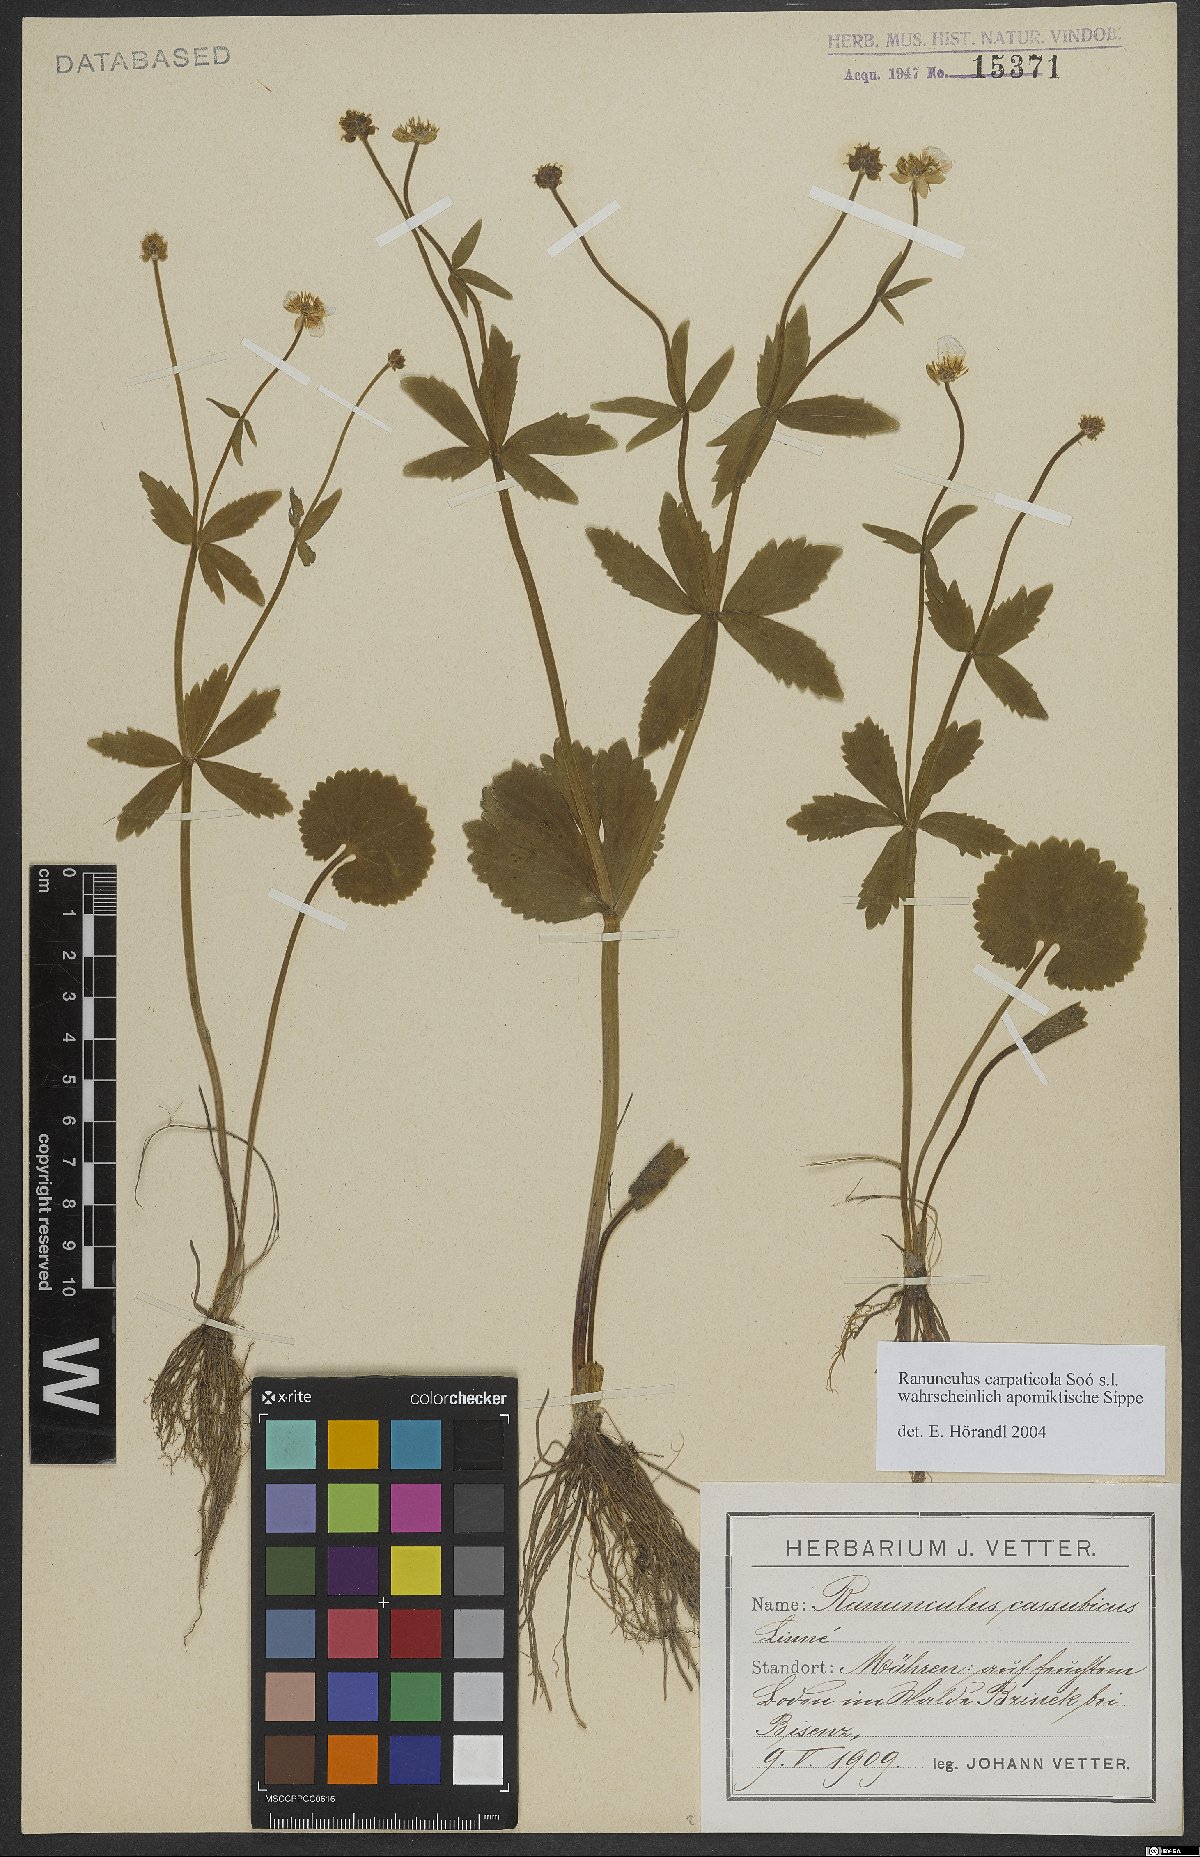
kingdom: Plantae
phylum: Tracheophyta
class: Magnoliopsida
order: Ranunculales
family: Ranunculaceae
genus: Ranunculus
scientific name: Ranunculus cassubicifolius
